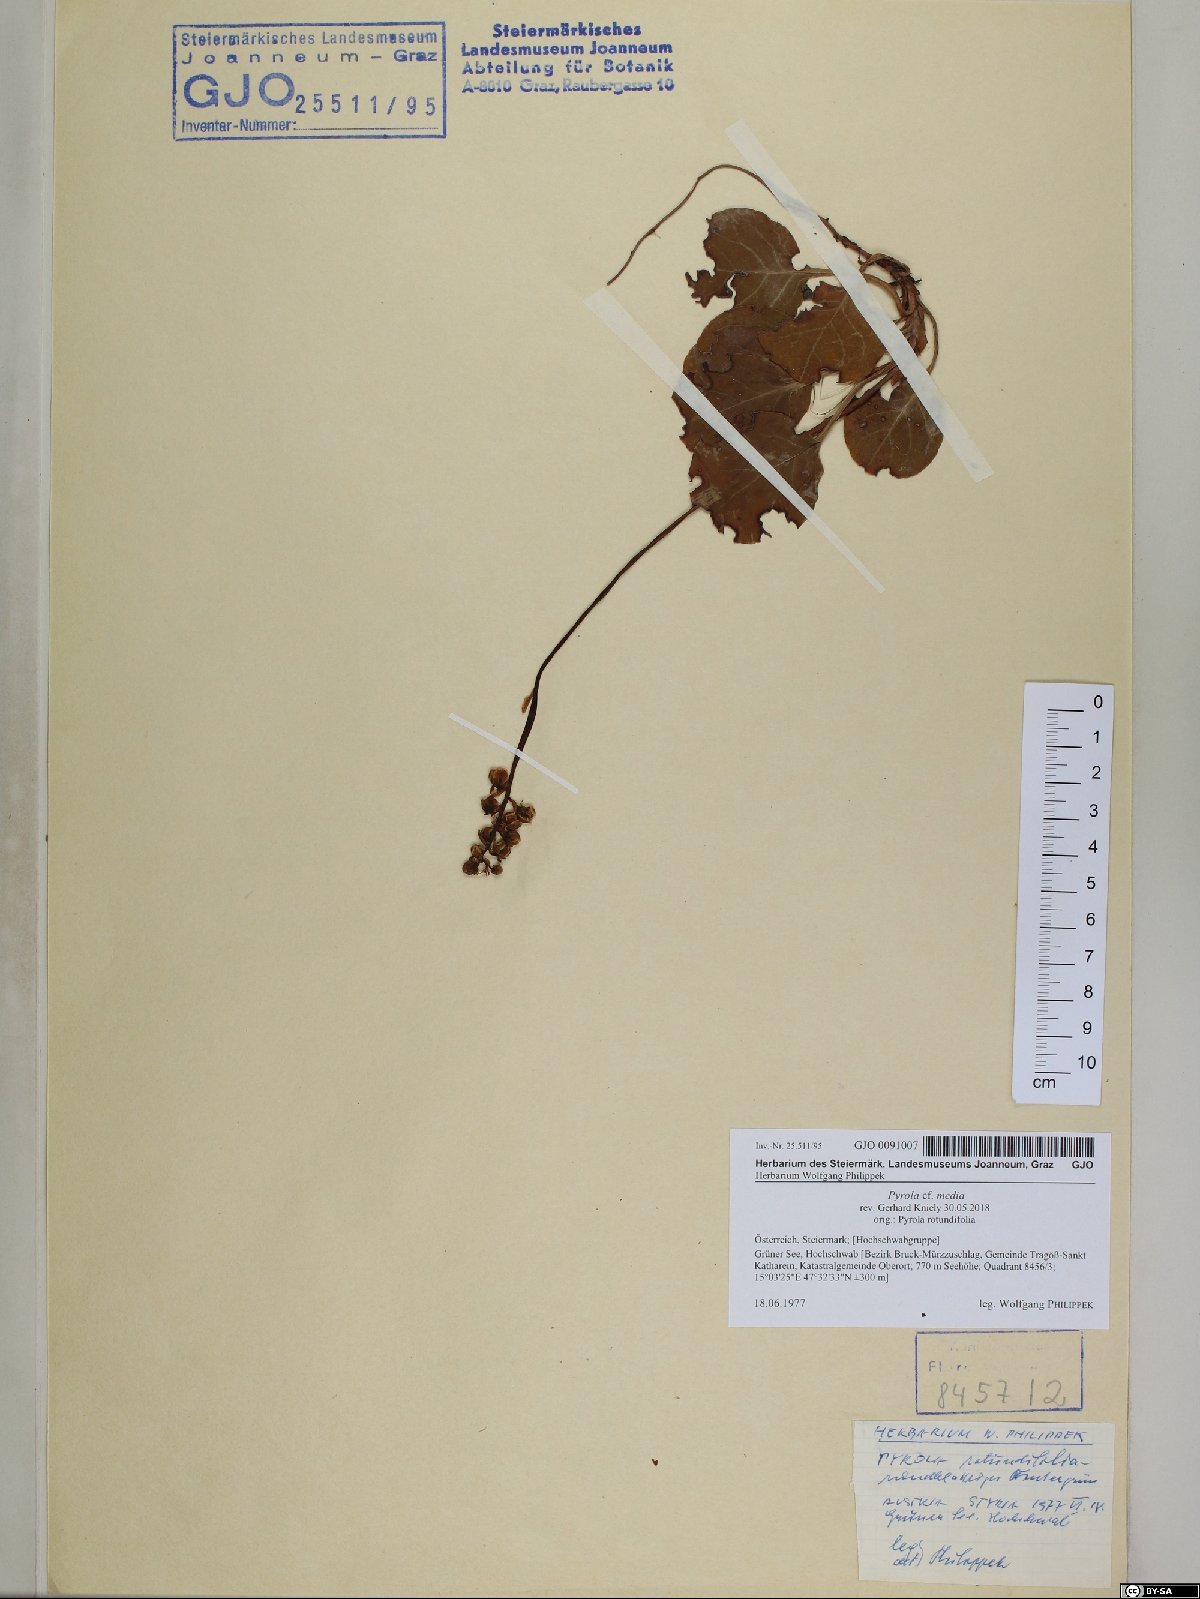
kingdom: Plantae
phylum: Tracheophyta
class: Magnoliopsida
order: Ericales
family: Ericaceae
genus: Pyrola
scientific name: Pyrola media
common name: Intermediate wintergreen
